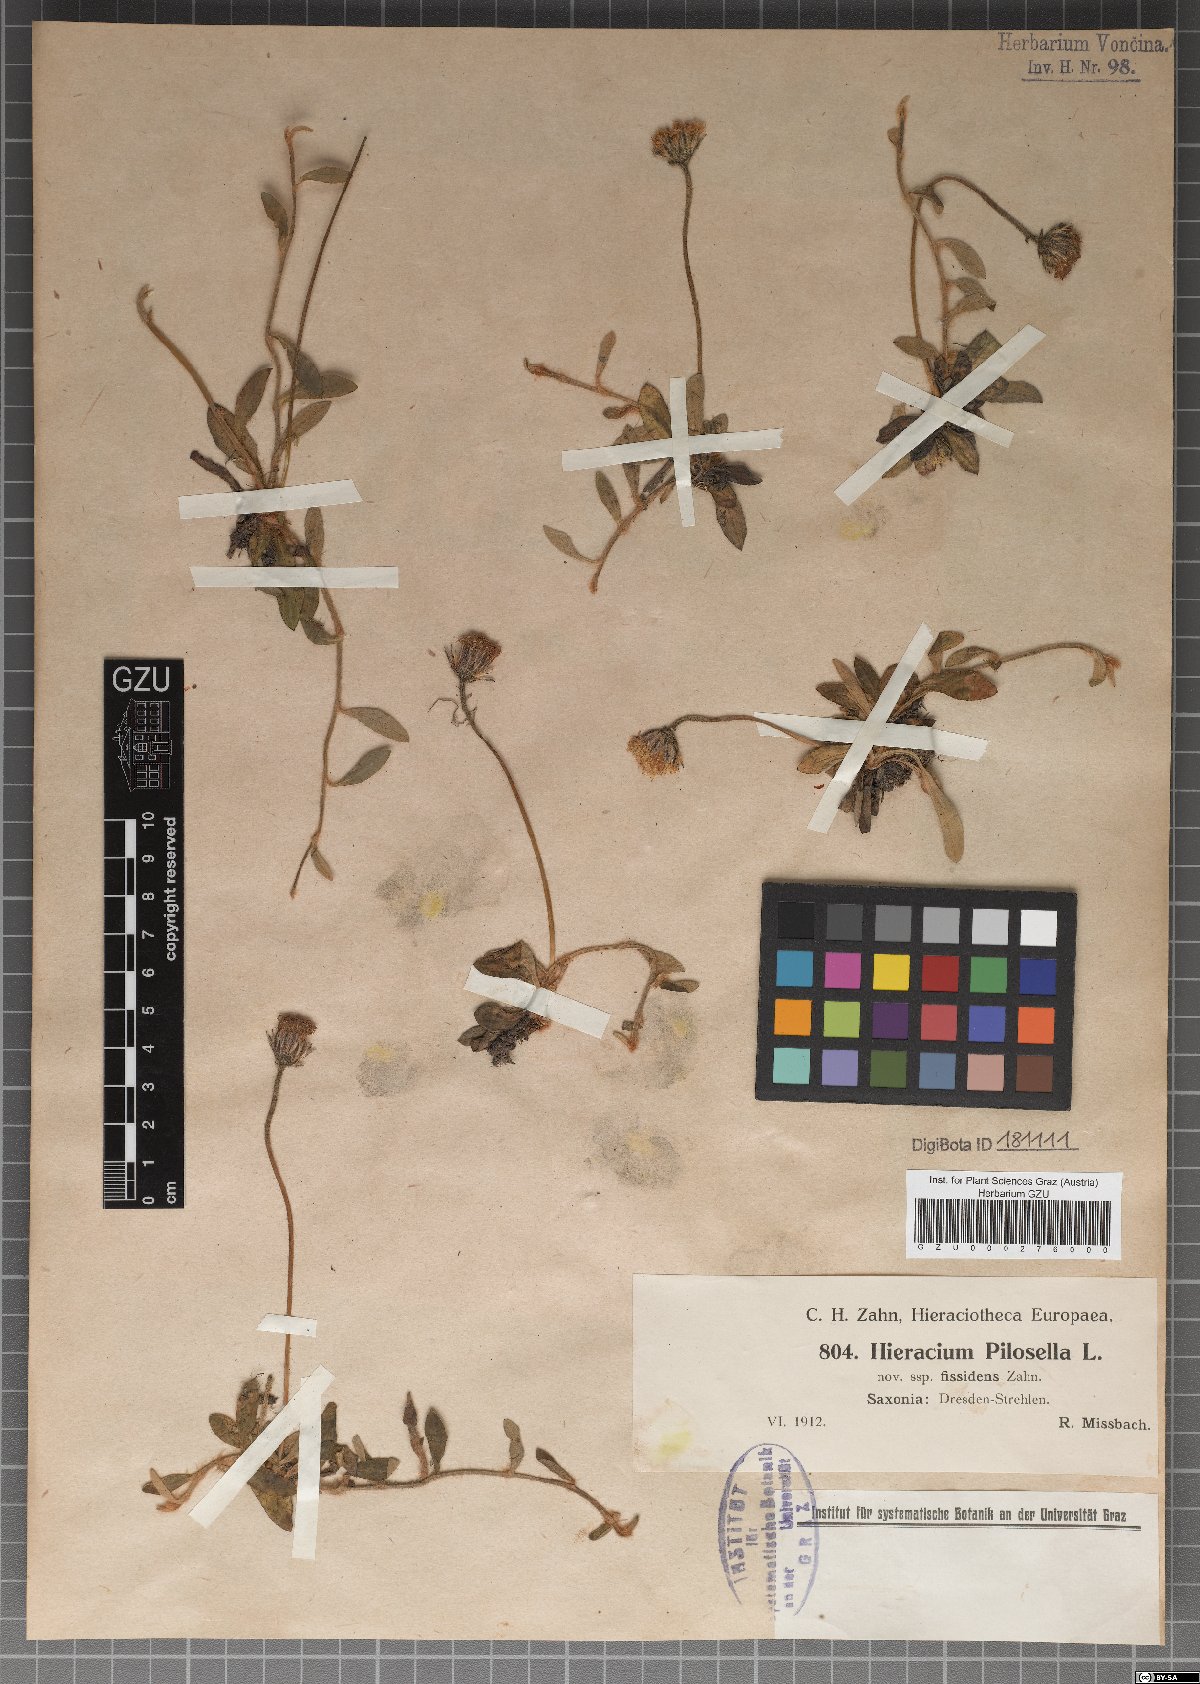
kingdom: Plantae
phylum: Tracheophyta
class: Magnoliopsida
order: Asterales
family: Asteraceae
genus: Pilosella
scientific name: Pilosella officinarum
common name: Mouse-ear hawkweed
